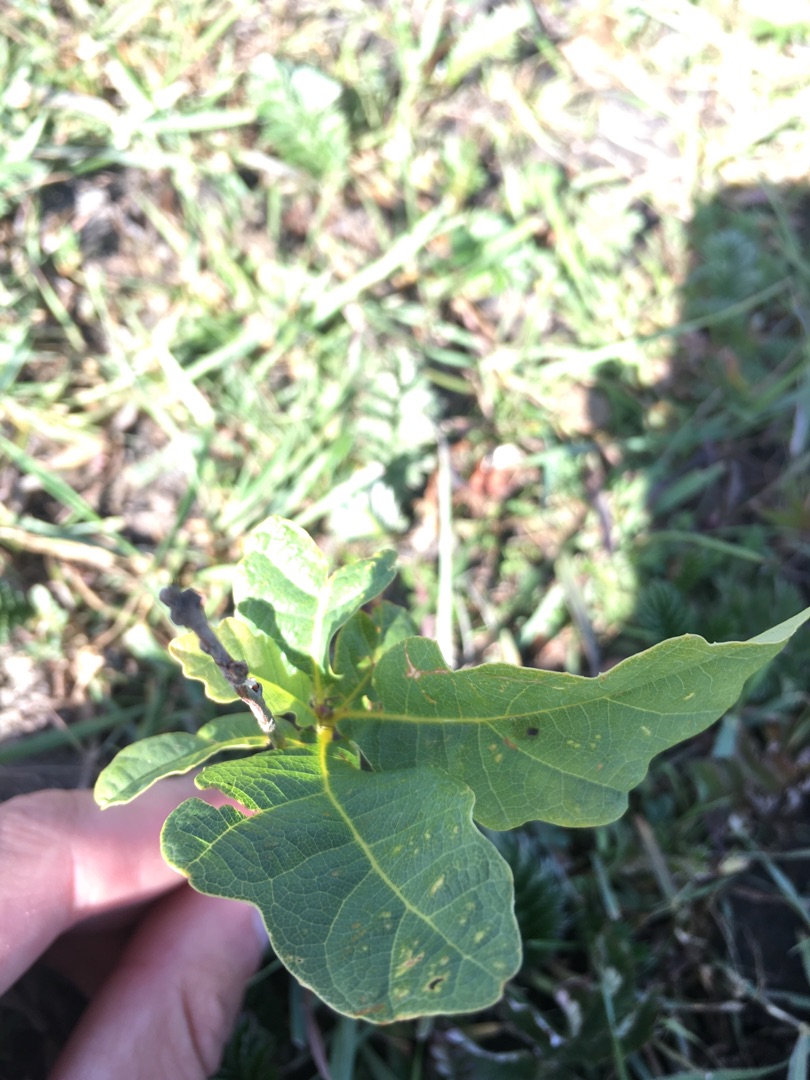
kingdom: Plantae
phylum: Tracheophyta
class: Magnoliopsida
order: Fagales
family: Fagaceae
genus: Quercus
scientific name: Quercus robur
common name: Stilk-eg/almindelig eg
